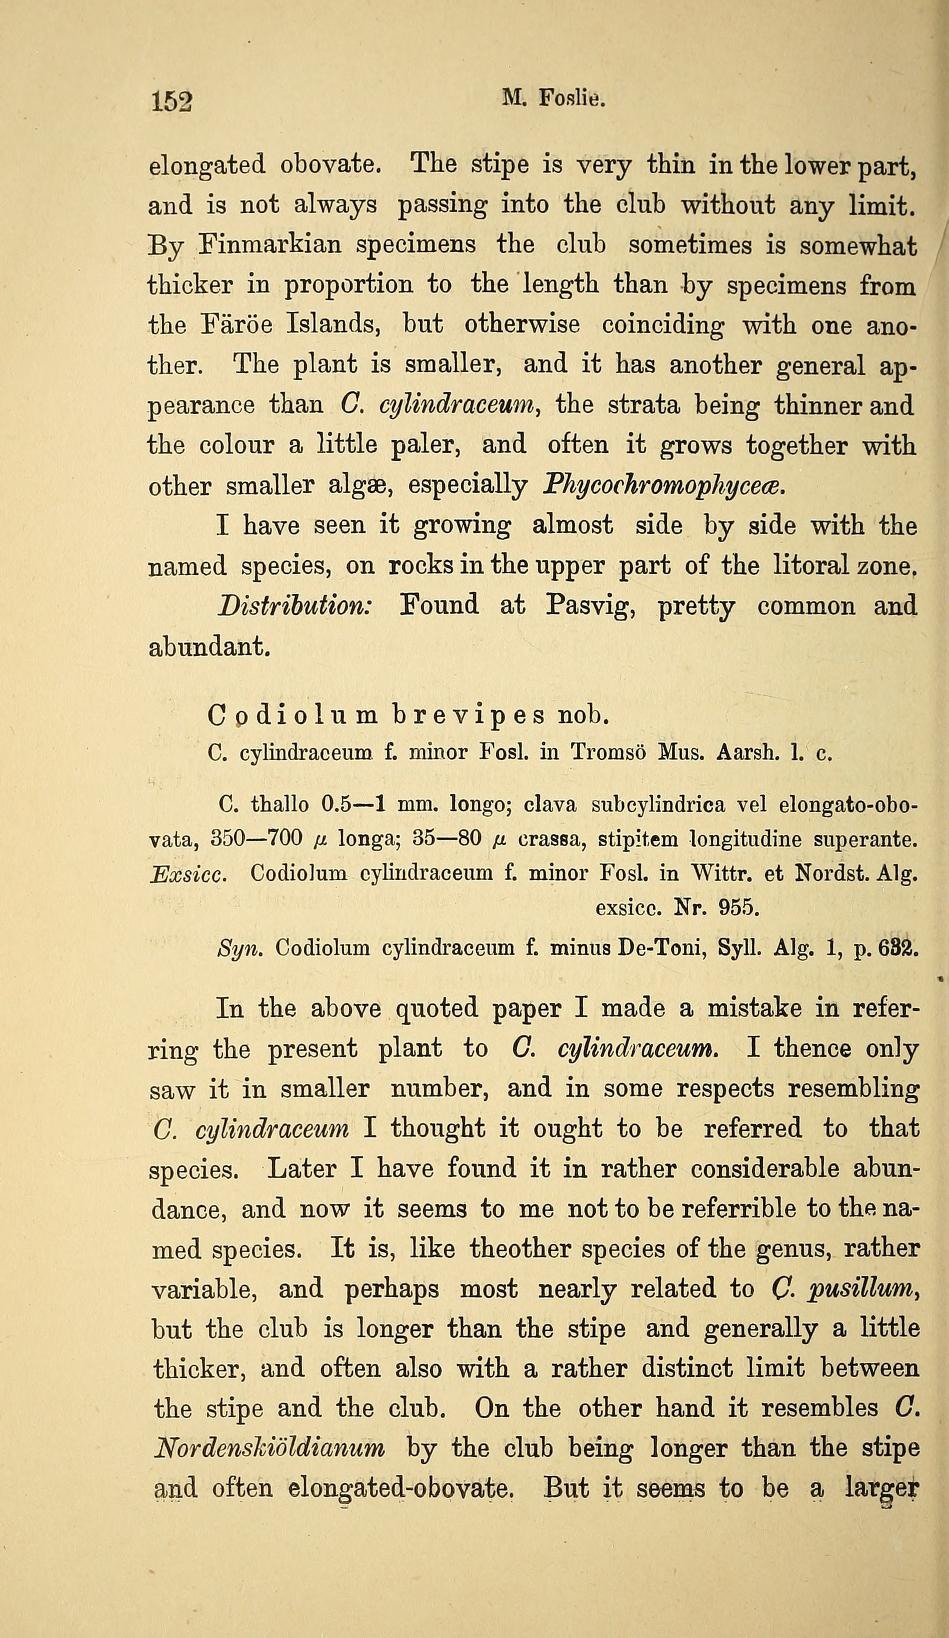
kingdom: Plantae
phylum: Chlorophyta
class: Ulvophyceae
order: Ulotrichales
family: Ulotrichaceae
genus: Codiolum
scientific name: Codiolum brevipes
